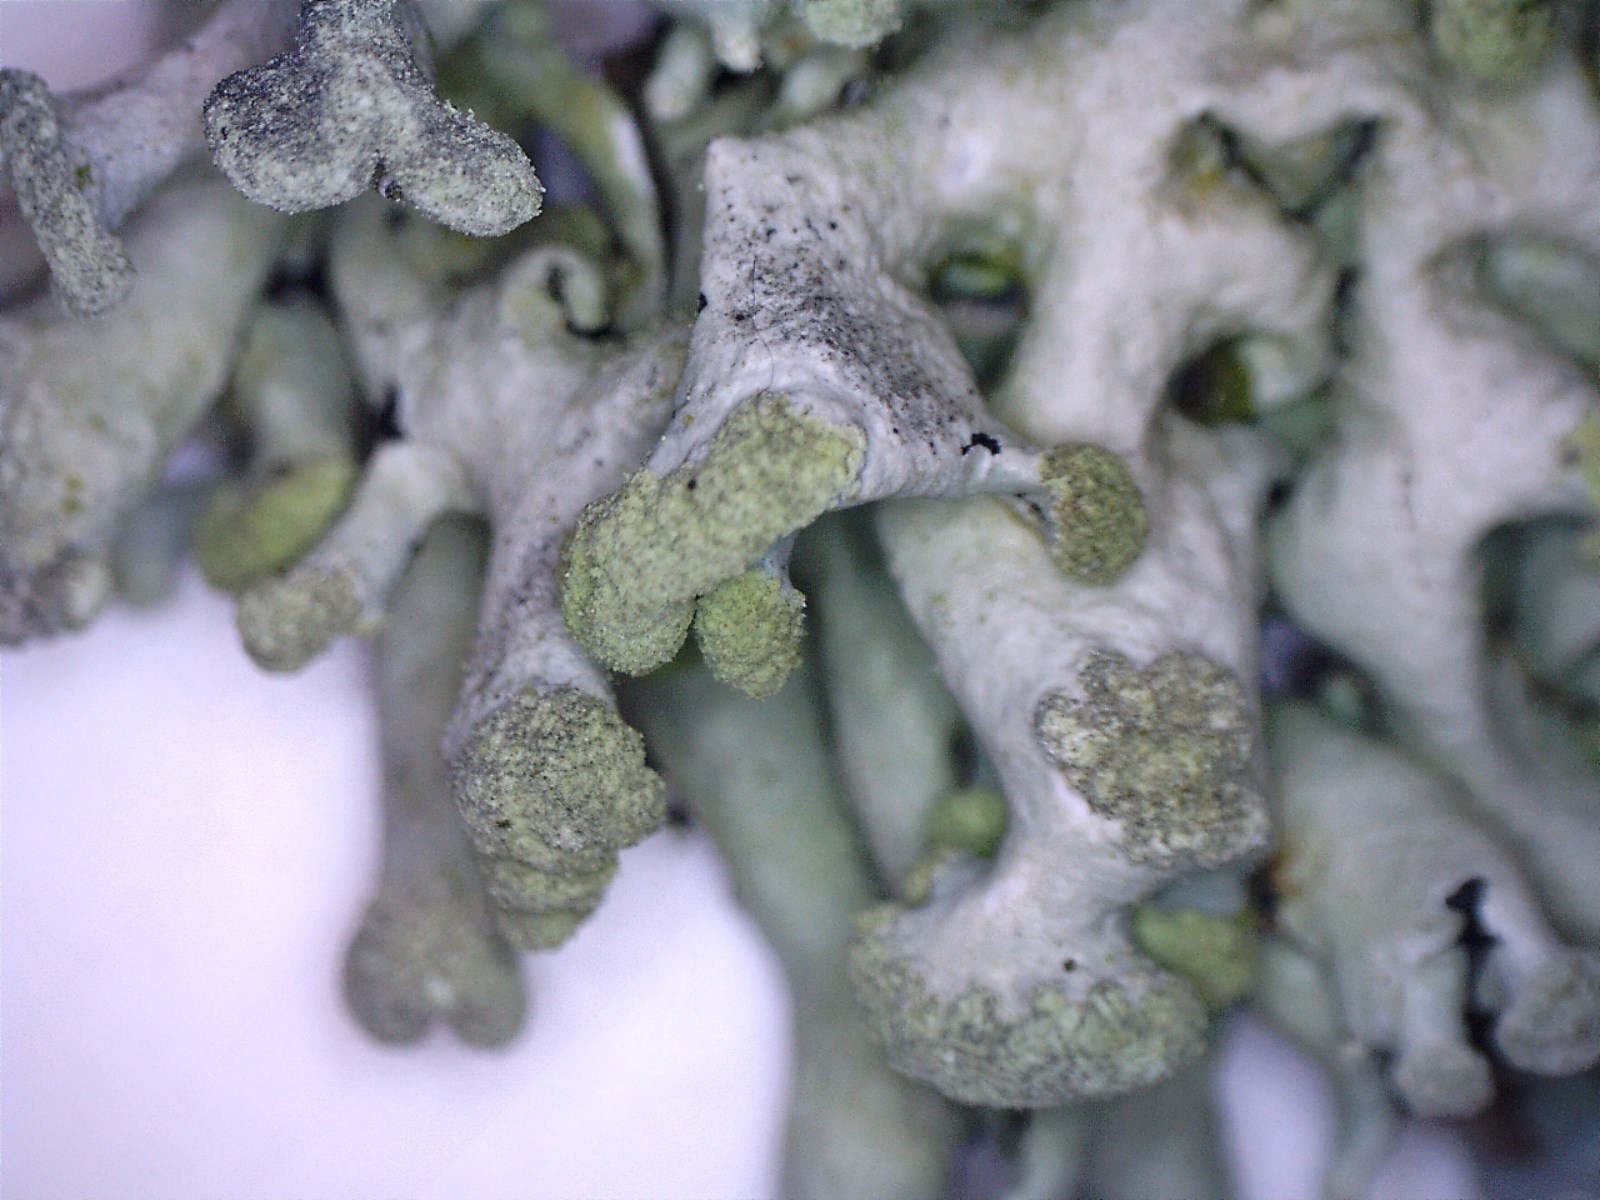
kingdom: Fungi
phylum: Ascomycota
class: Lecanoromycetes
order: Lecanorales
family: Parmeliaceae
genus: Hypogymnia
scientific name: Hypogymnia tubulosa
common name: finger-kvistlav
